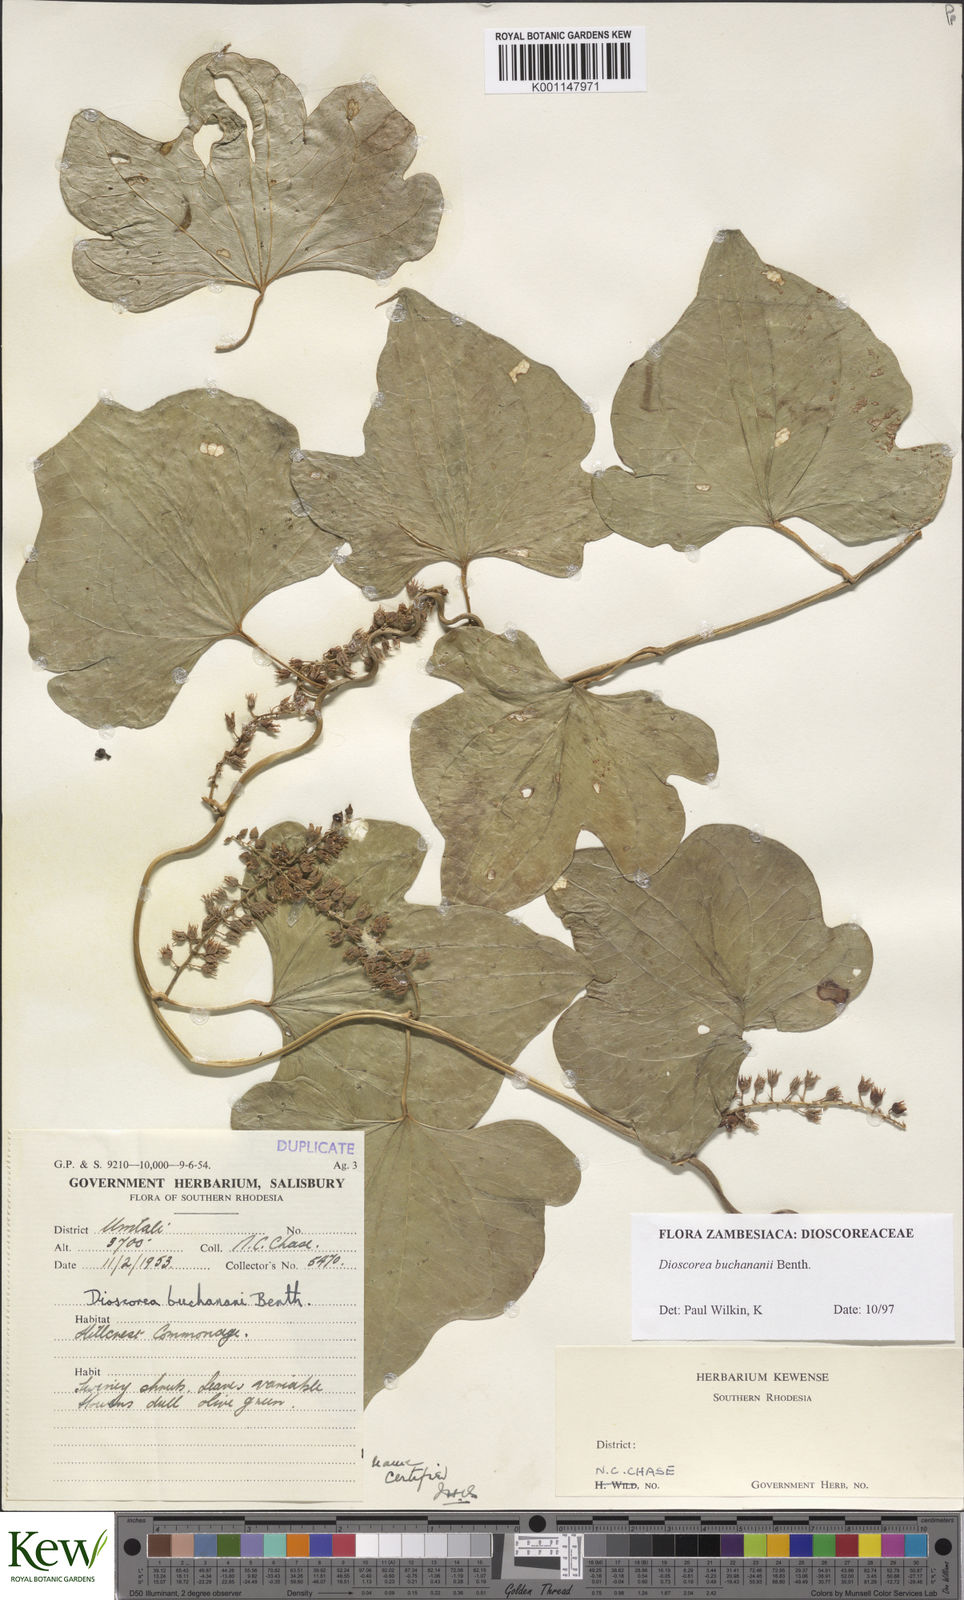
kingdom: Plantae
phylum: Tracheophyta
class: Liliopsida
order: Dioscoreales
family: Dioscoreaceae
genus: Dioscorea
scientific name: Dioscorea buchananii
